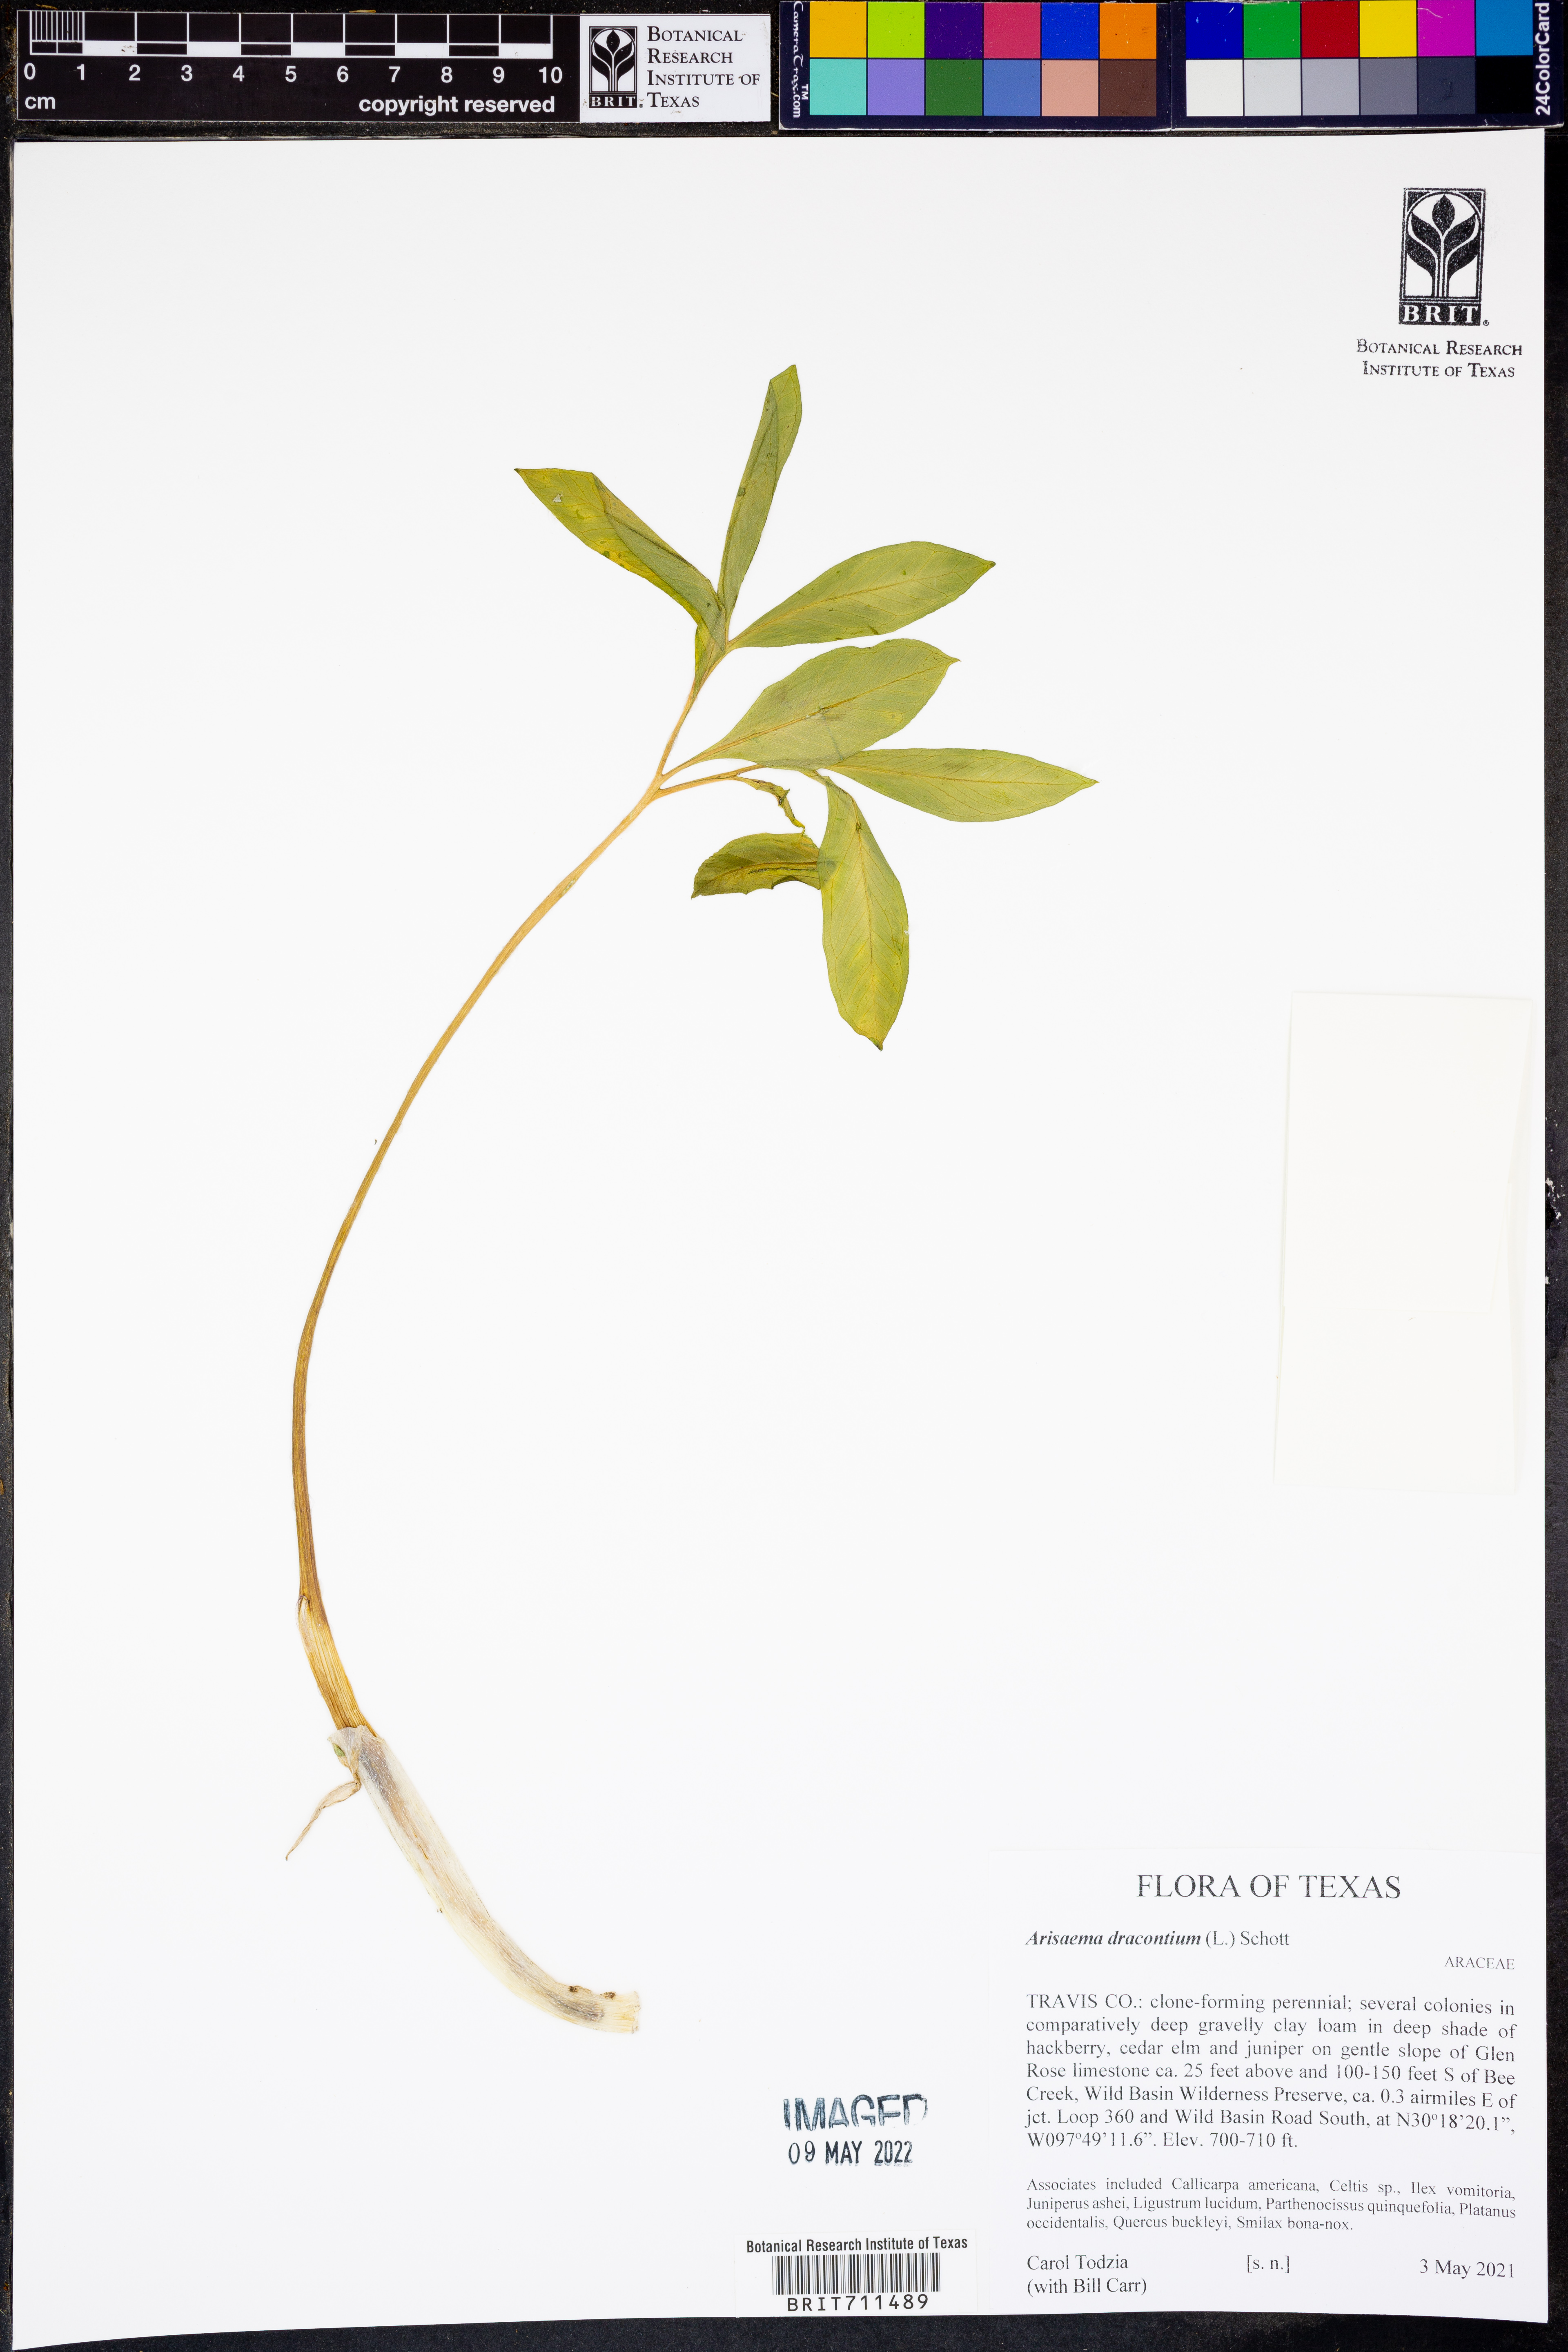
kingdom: Plantae
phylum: Tracheophyta
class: Liliopsida
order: Alismatales
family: Araceae
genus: Arisaema
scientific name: Arisaema dracontium
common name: Dragon-arum
